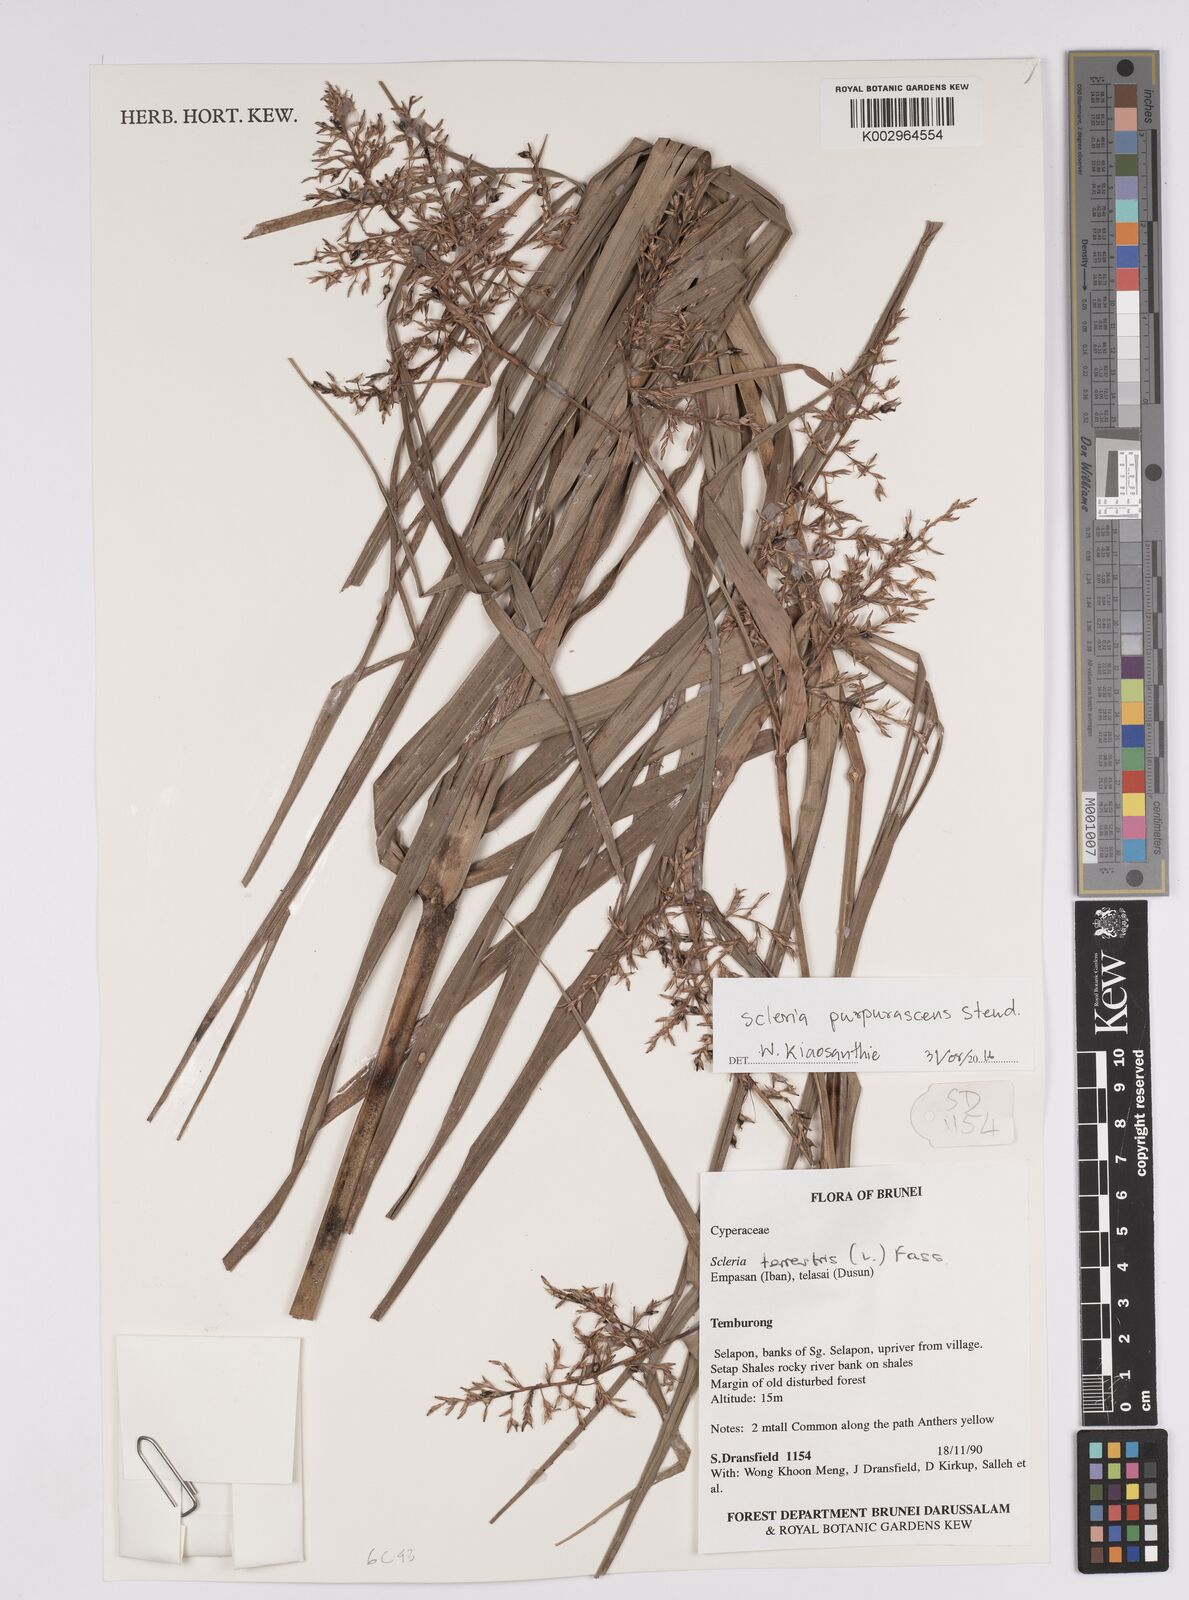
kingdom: Plantae
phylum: Tracheophyta
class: Liliopsida
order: Poales
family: Cyperaceae
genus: Scleria
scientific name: Scleria purpurascens
